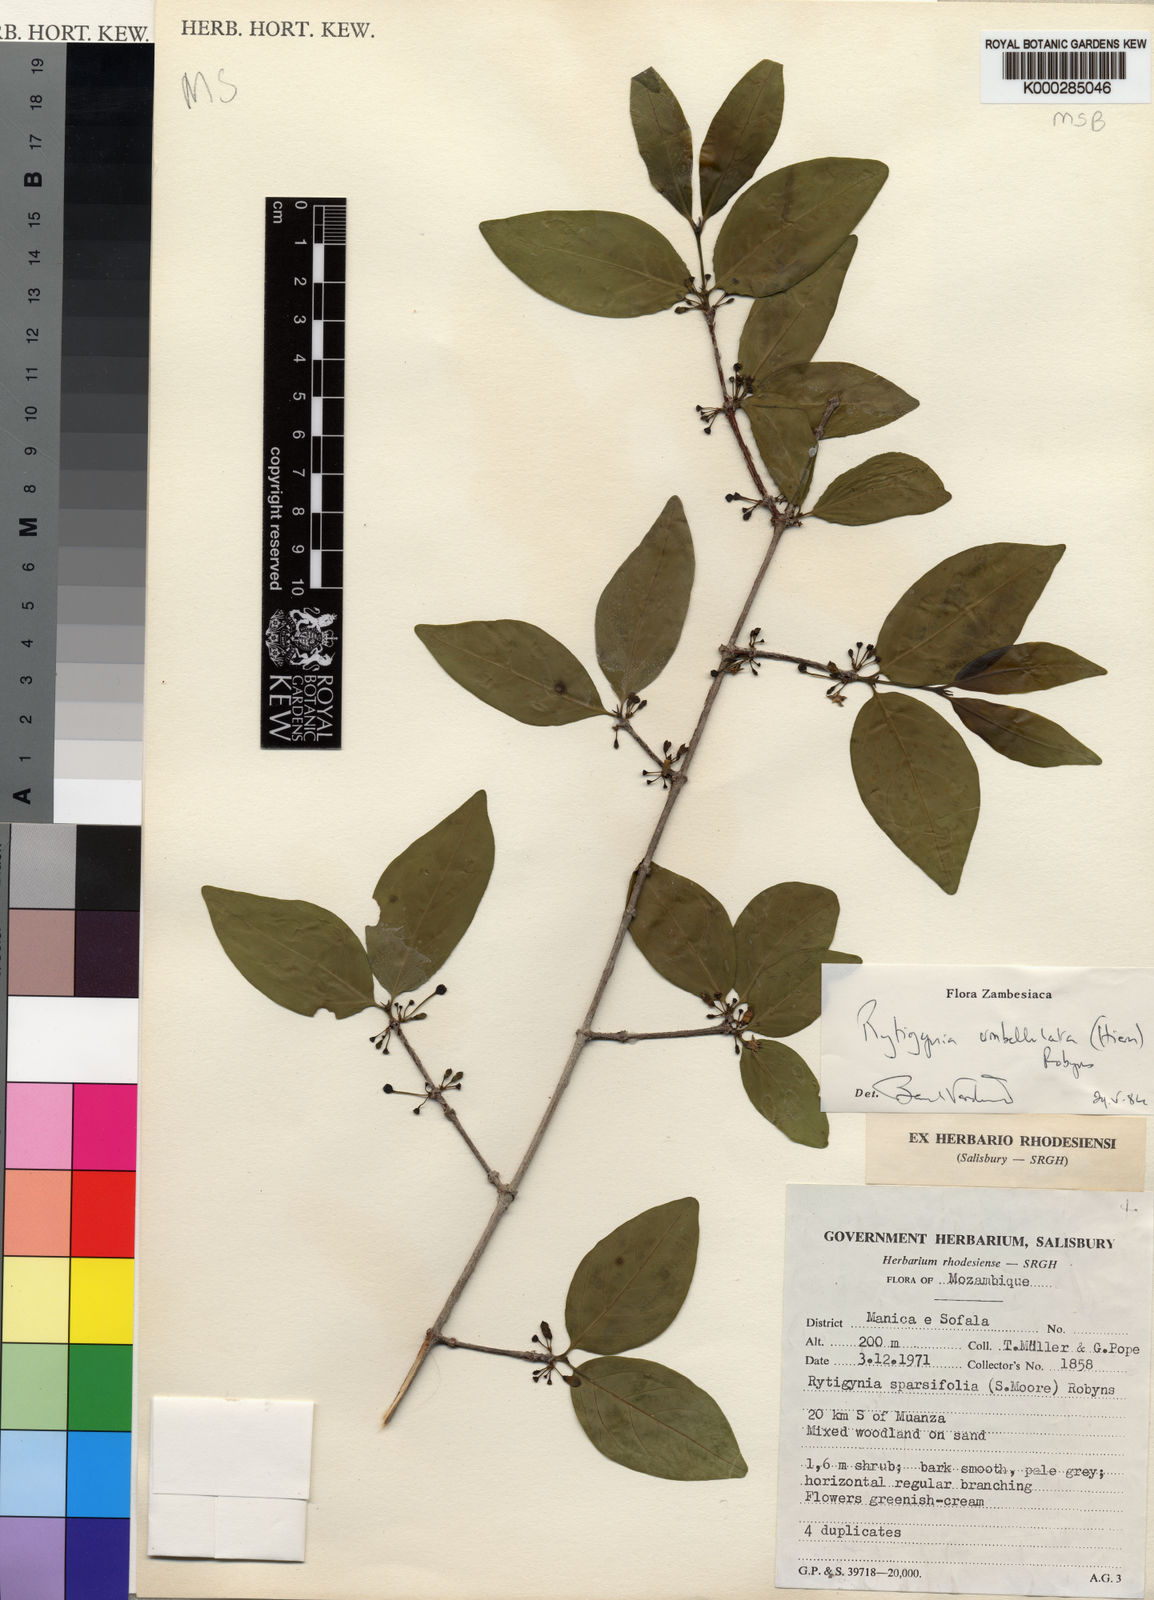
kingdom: Plantae
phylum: Tracheophyta
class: Magnoliopsida
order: Gentianales
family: Rubiaceae
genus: Rytigynia
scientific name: Rytigynia umbellulata
